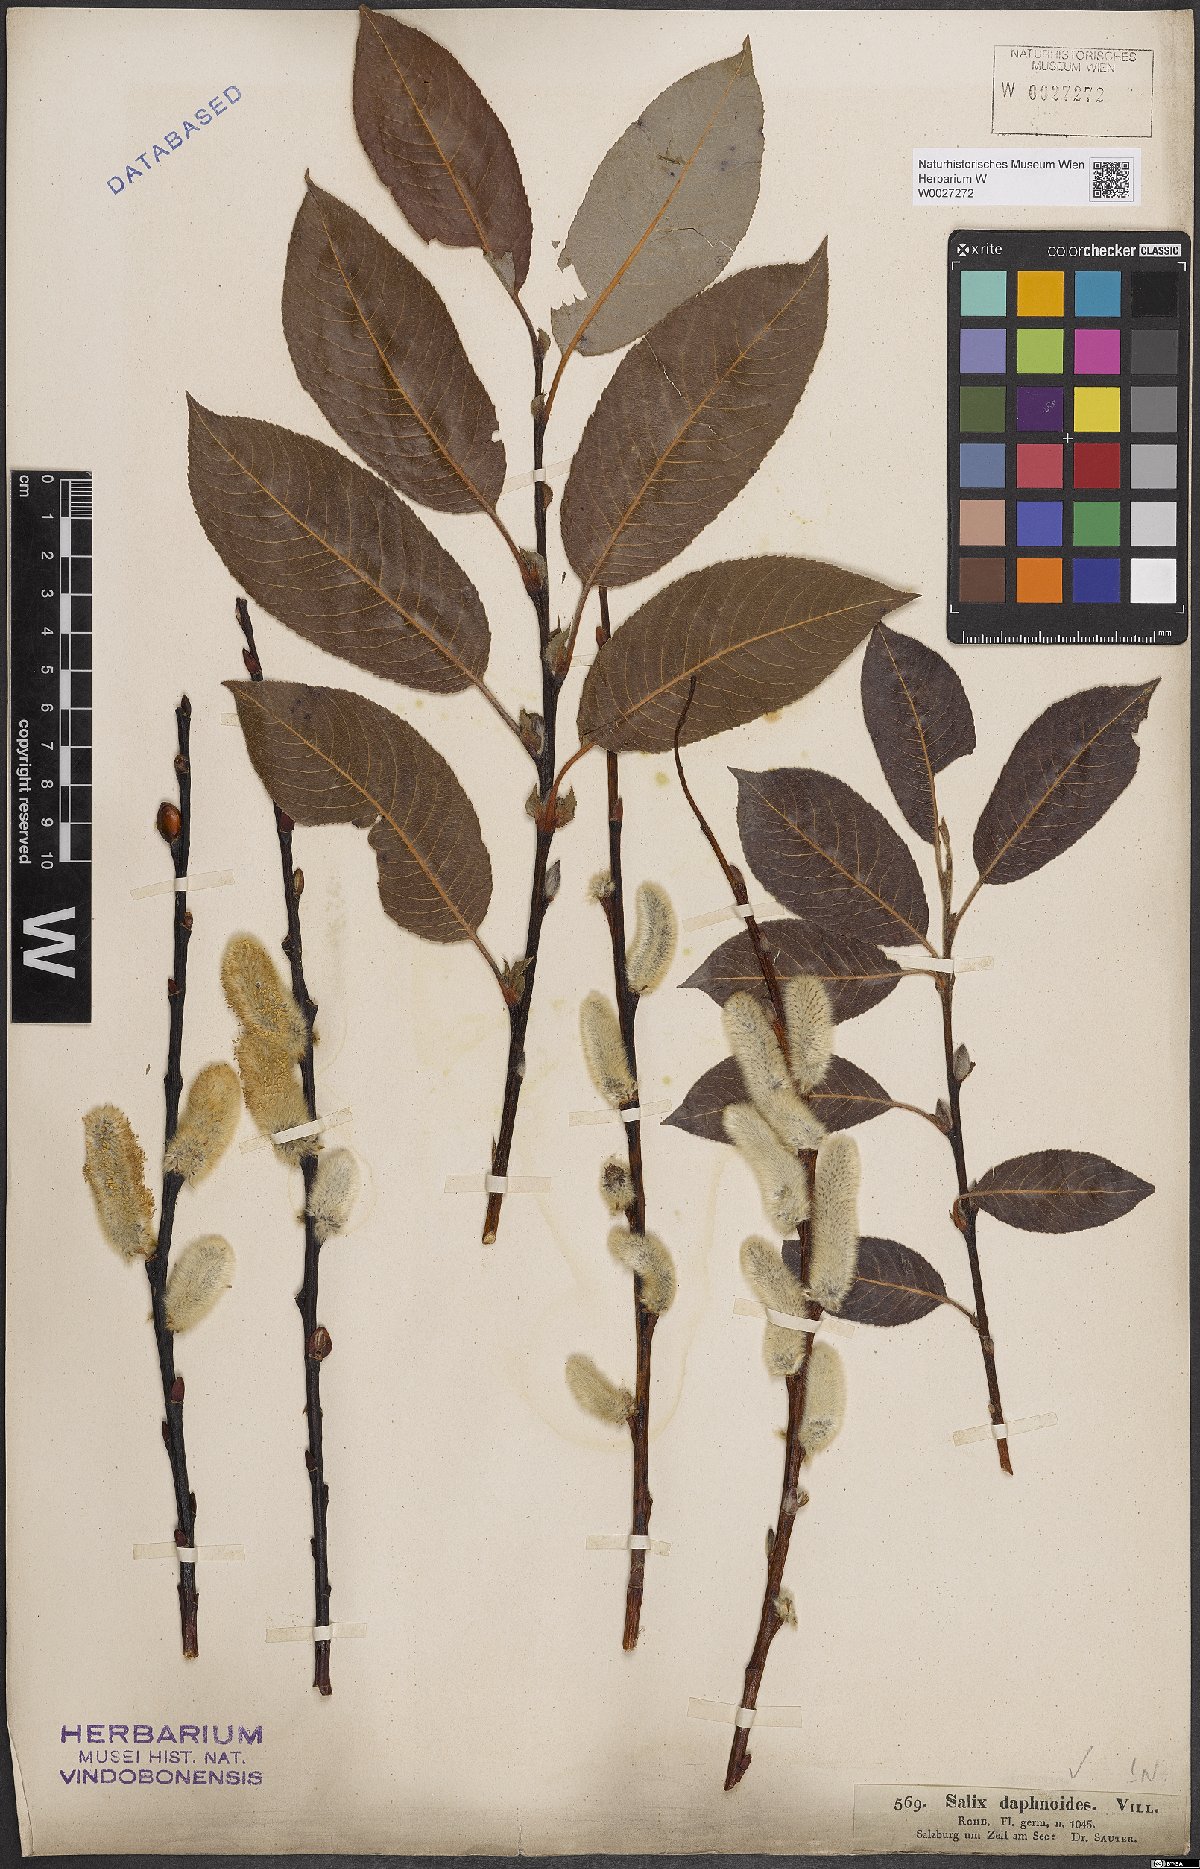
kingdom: Plantae
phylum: Tracheophyta
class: Magnoliopsida
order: Malpighiales
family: Salicaceae
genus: Salix
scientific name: Salix daphnoides
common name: European violet-willow
